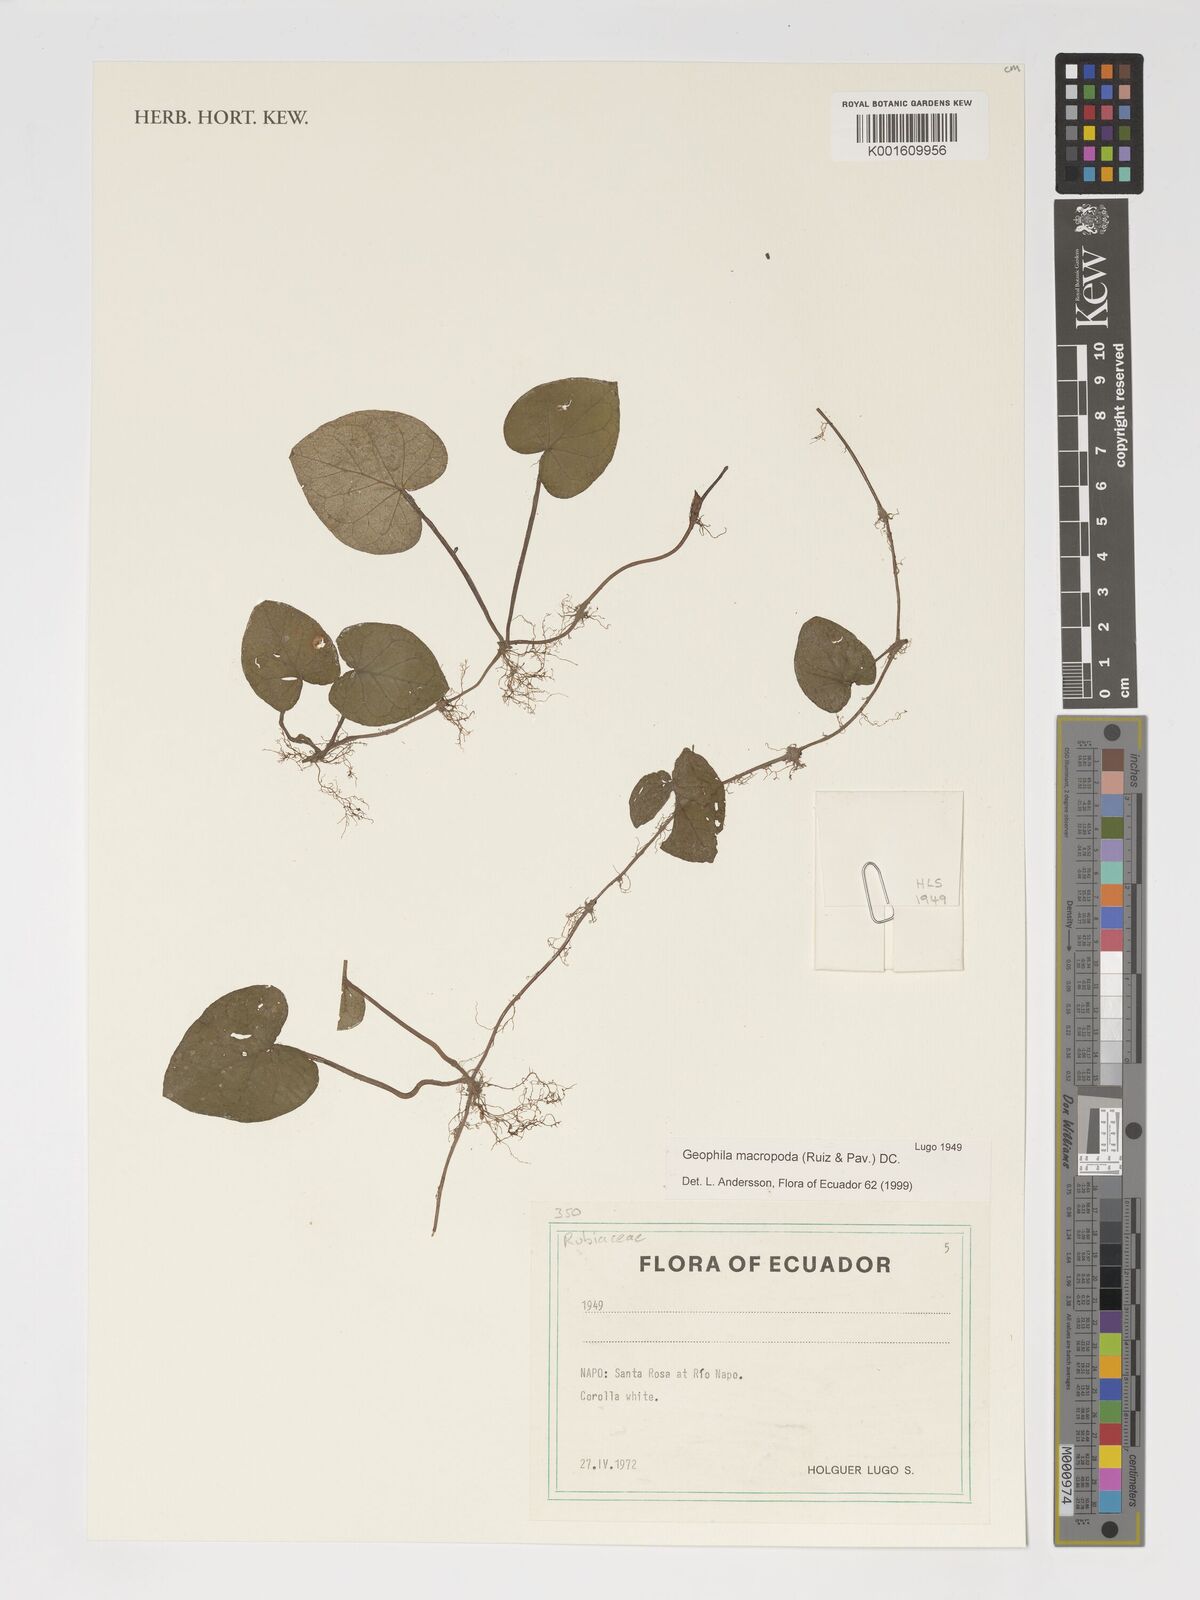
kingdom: Plantae
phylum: Tracheophyta
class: Magnoliopsida
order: Gentianales
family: Rubiaceae
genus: Geophila
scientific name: Geophila macropoda
